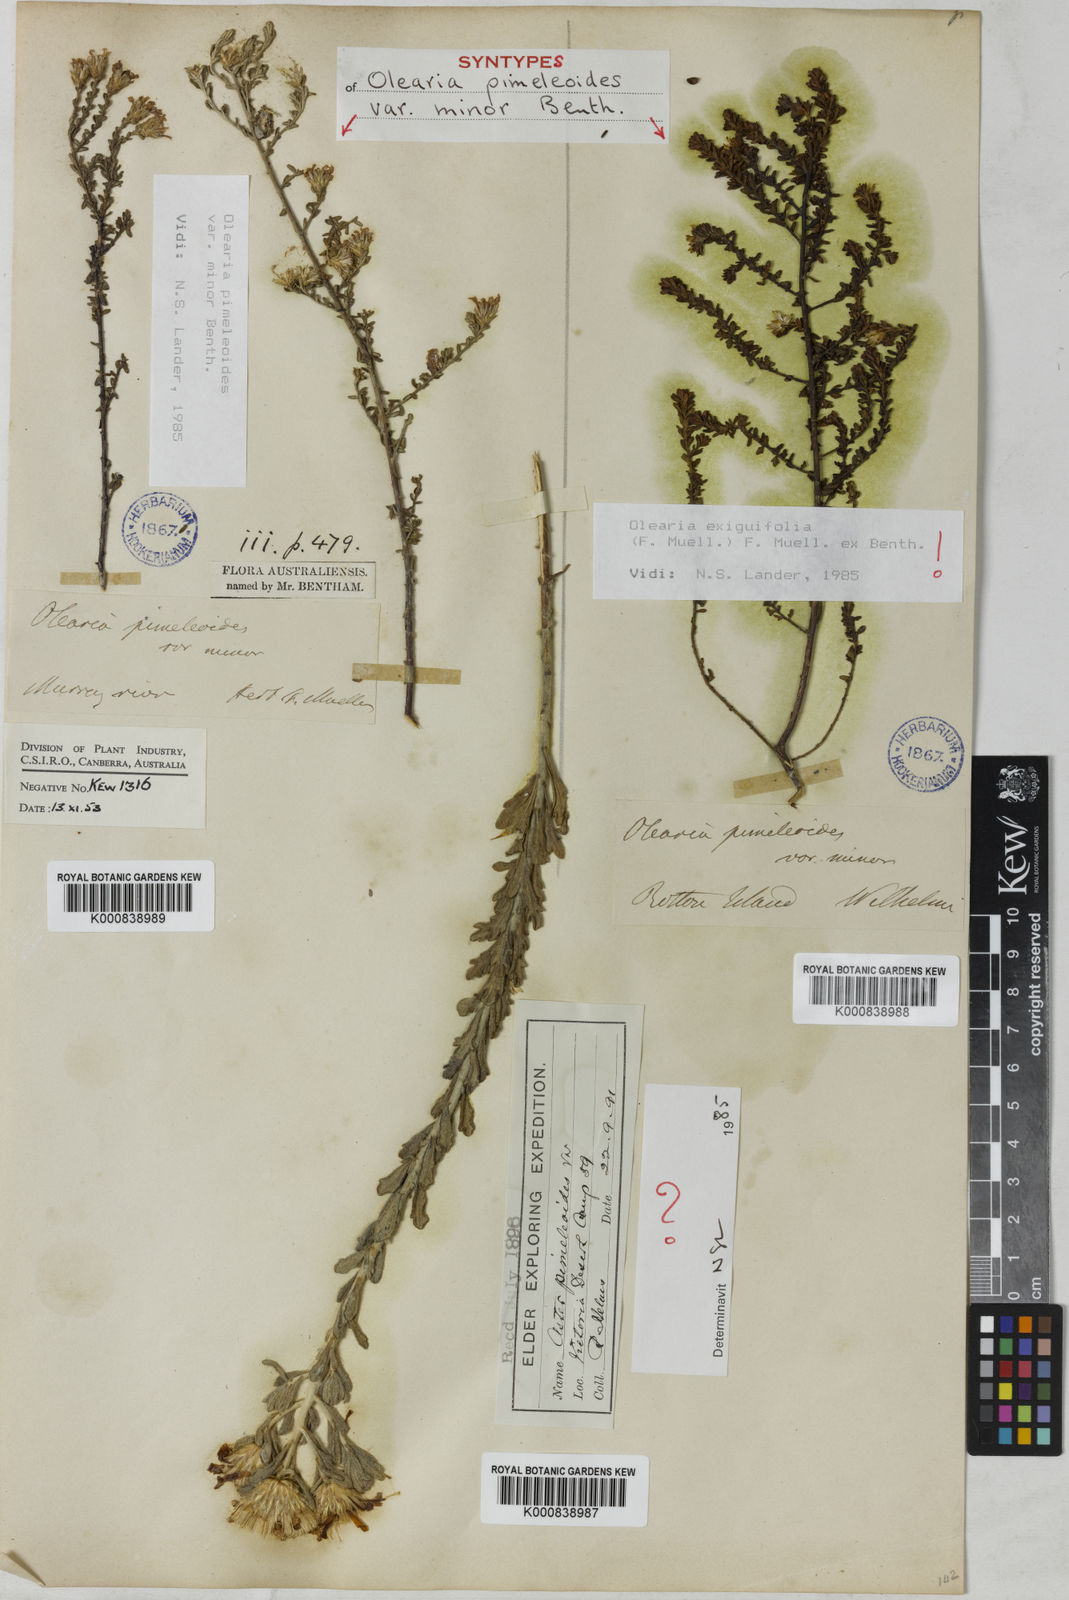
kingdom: Plantae
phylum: Tracheophyta
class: Magnoliopsida
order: Asterales
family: Asteraceae
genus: Olearia
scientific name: Olearia minor
